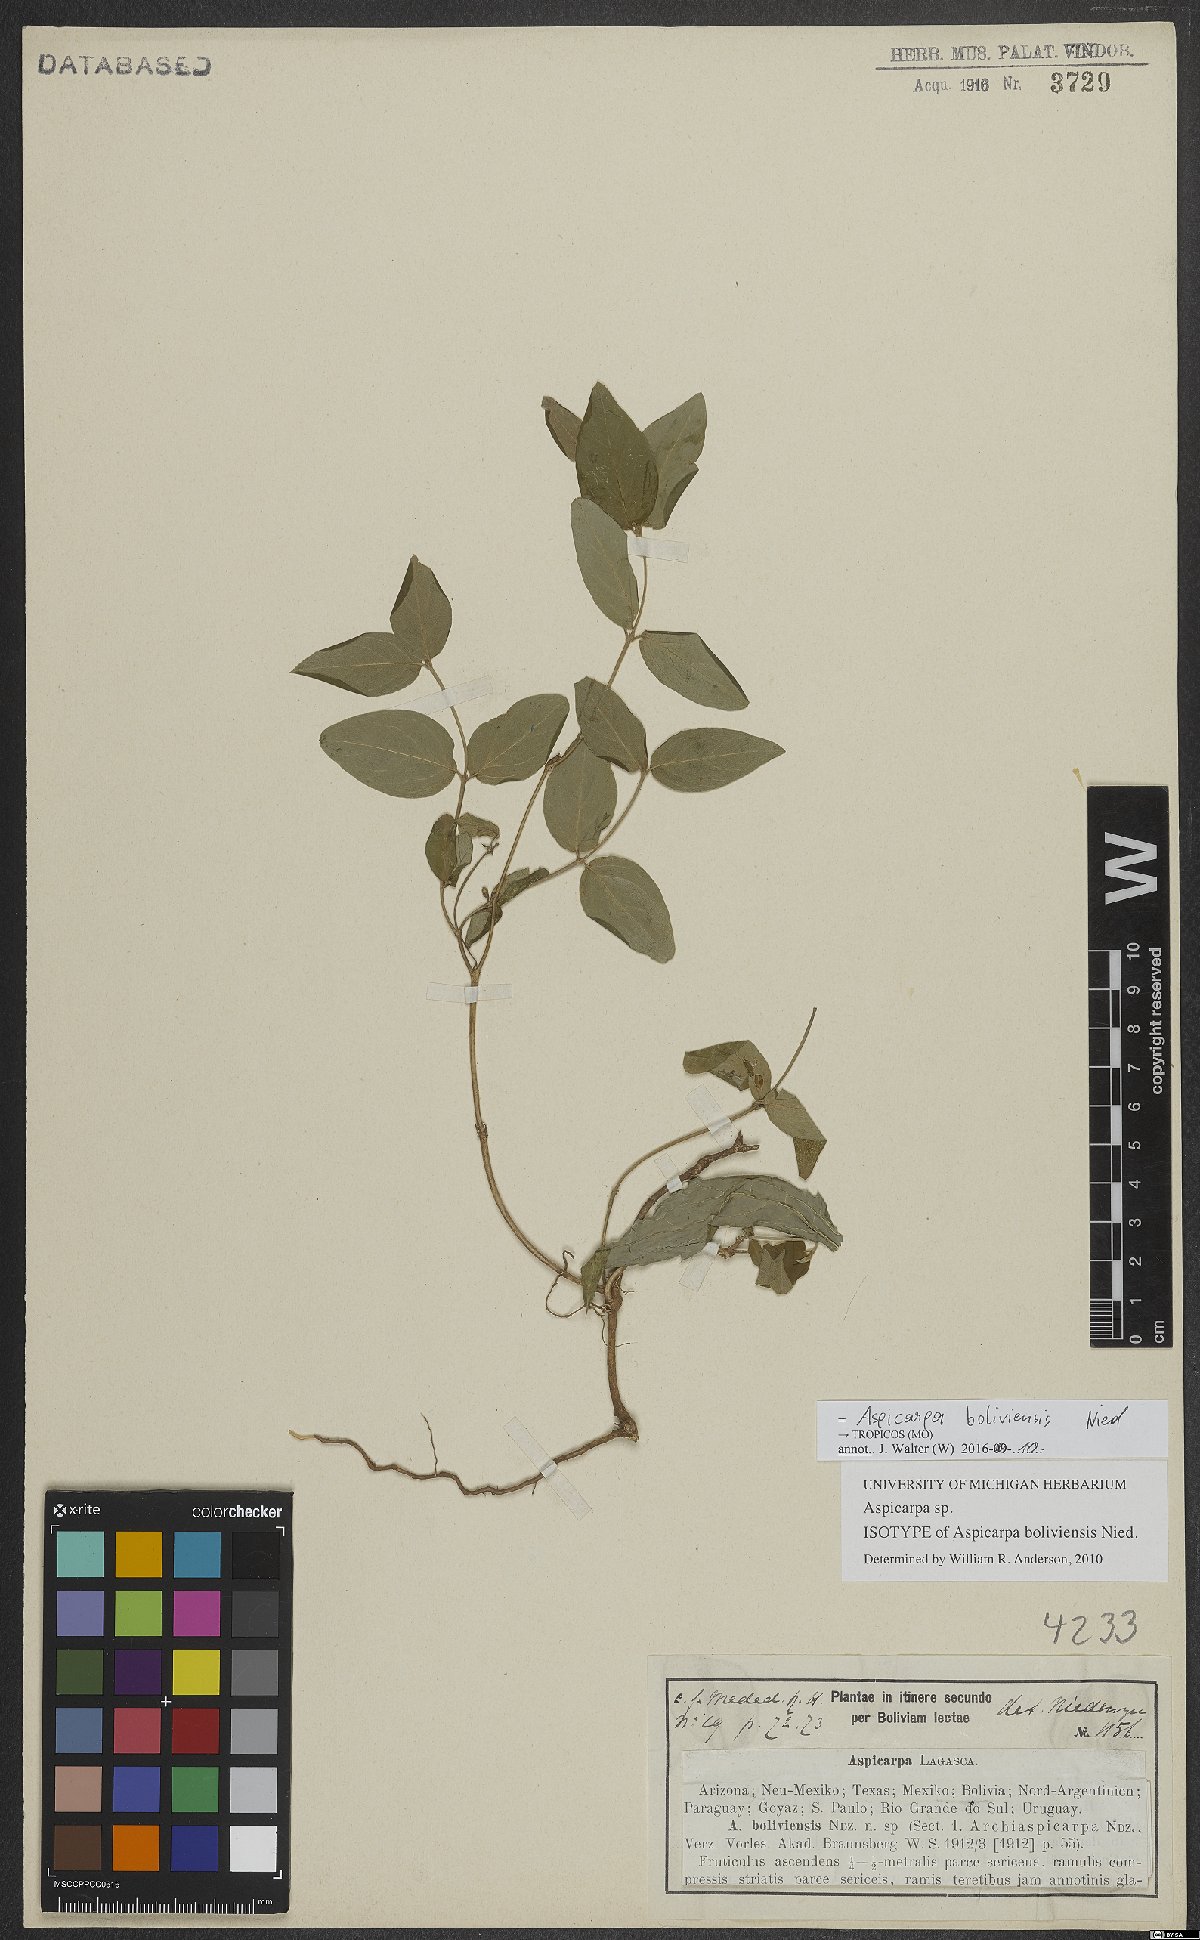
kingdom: Plantae
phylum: Tracheophyta
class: Magnoliopsida
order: Malpighiales
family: Malpighiaceae
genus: Aspicarpa
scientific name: Aspicarpa boliviensis
